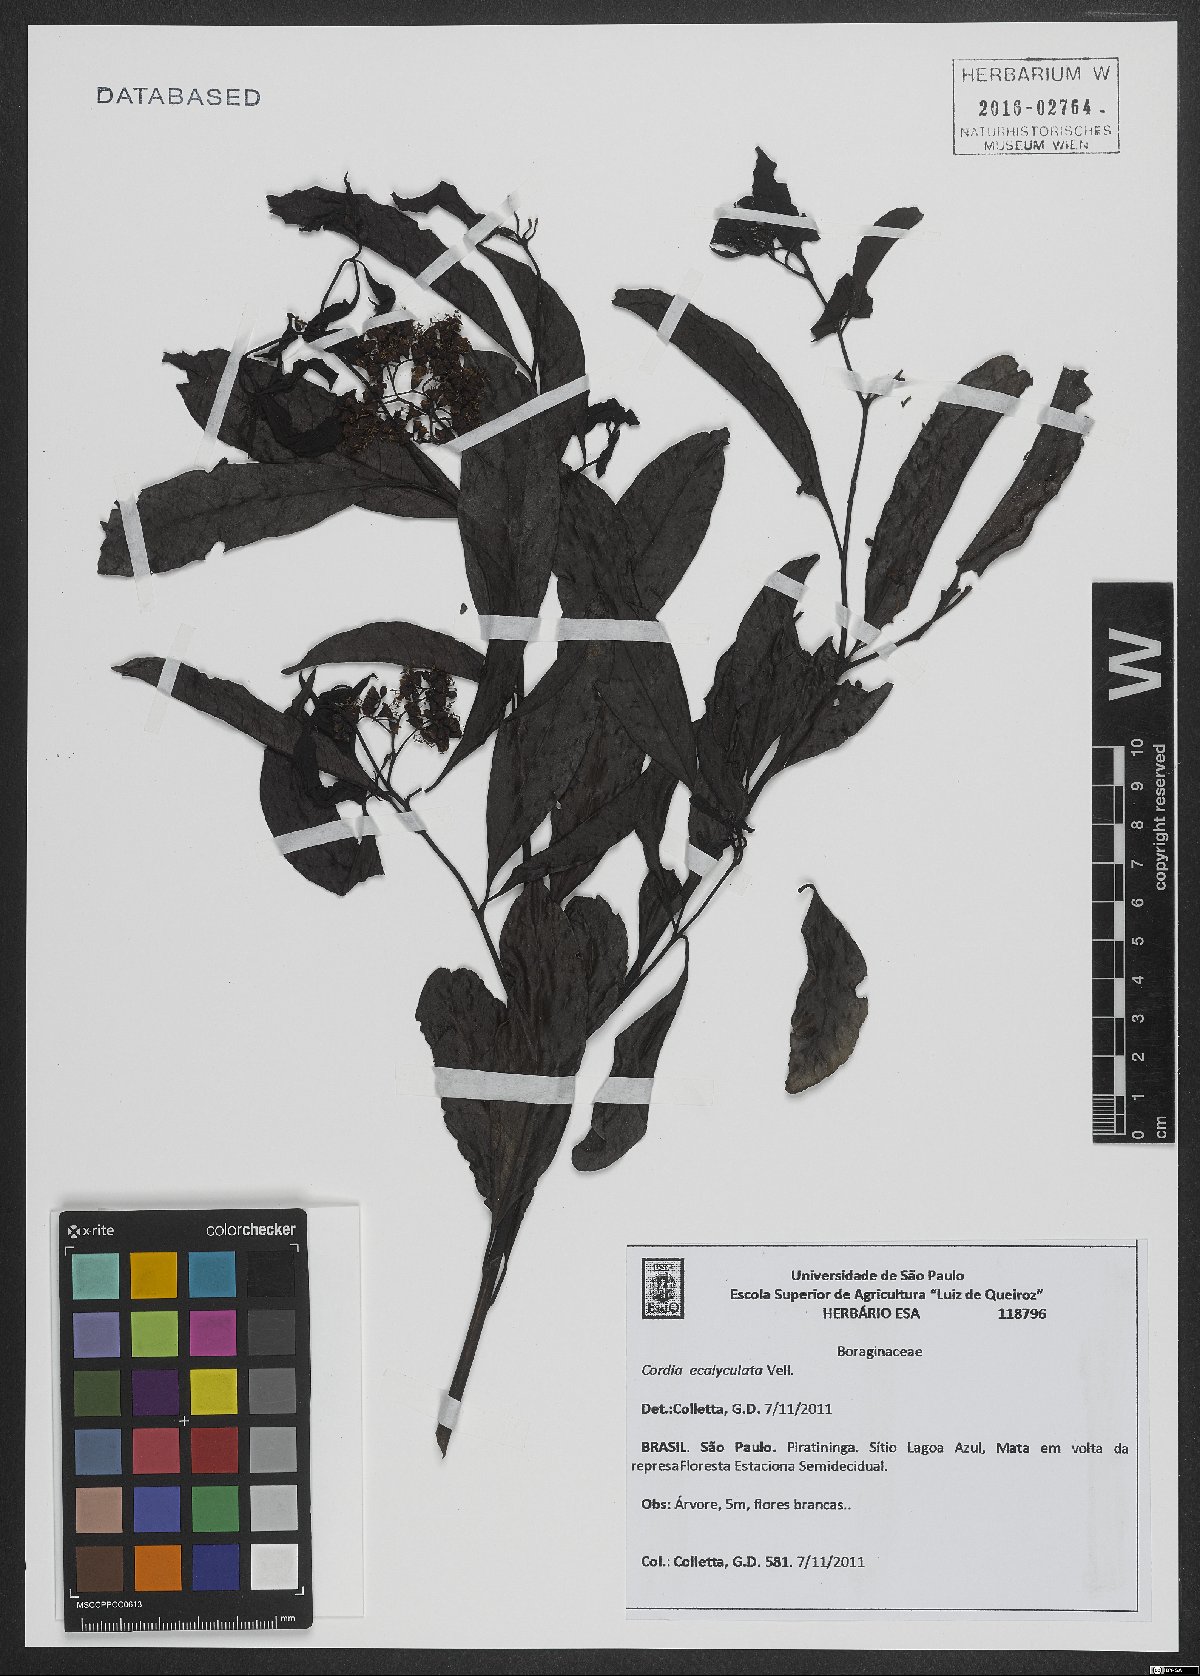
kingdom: Plantae
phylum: Tracheophyta
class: Magnoliopsida
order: Boraginales
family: Cordiaceae
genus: Cordia
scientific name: Cordia ecalyculata
